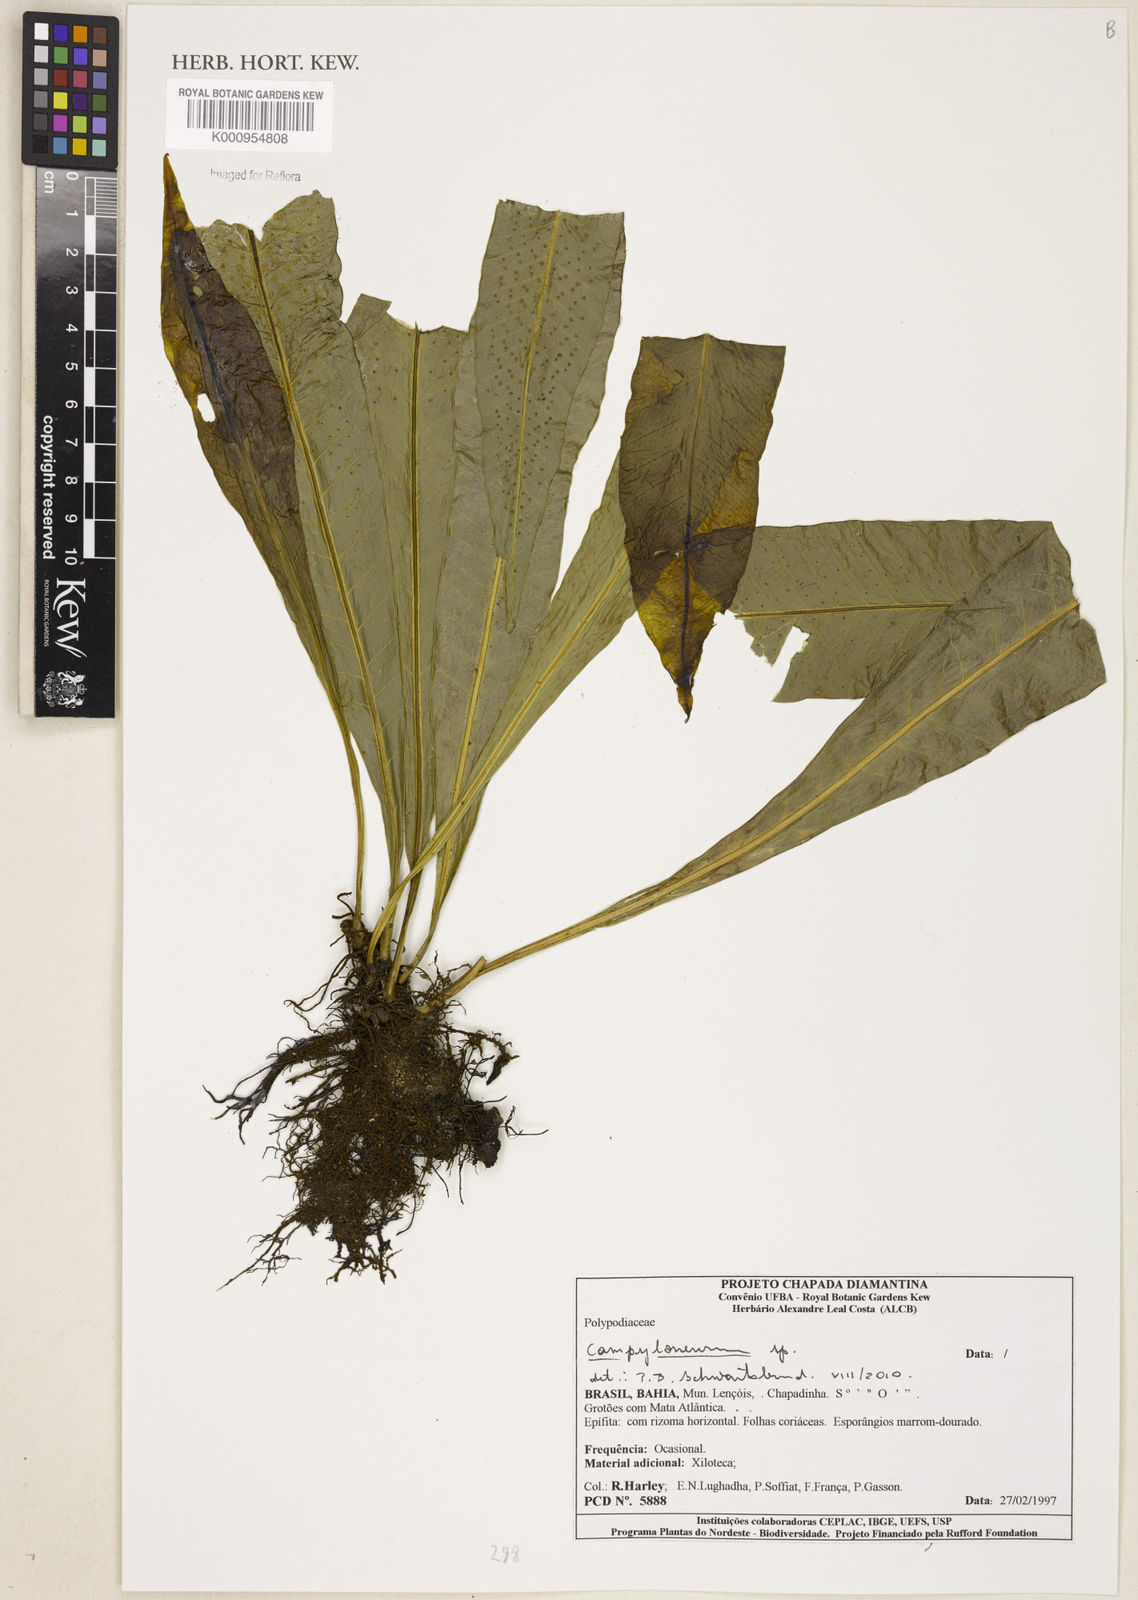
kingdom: Plantae
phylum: Tracheophyta
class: Polypodiopsida
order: Polypodiales
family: Polypodiaceae
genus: Campyloneurum
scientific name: Campyloneurum
